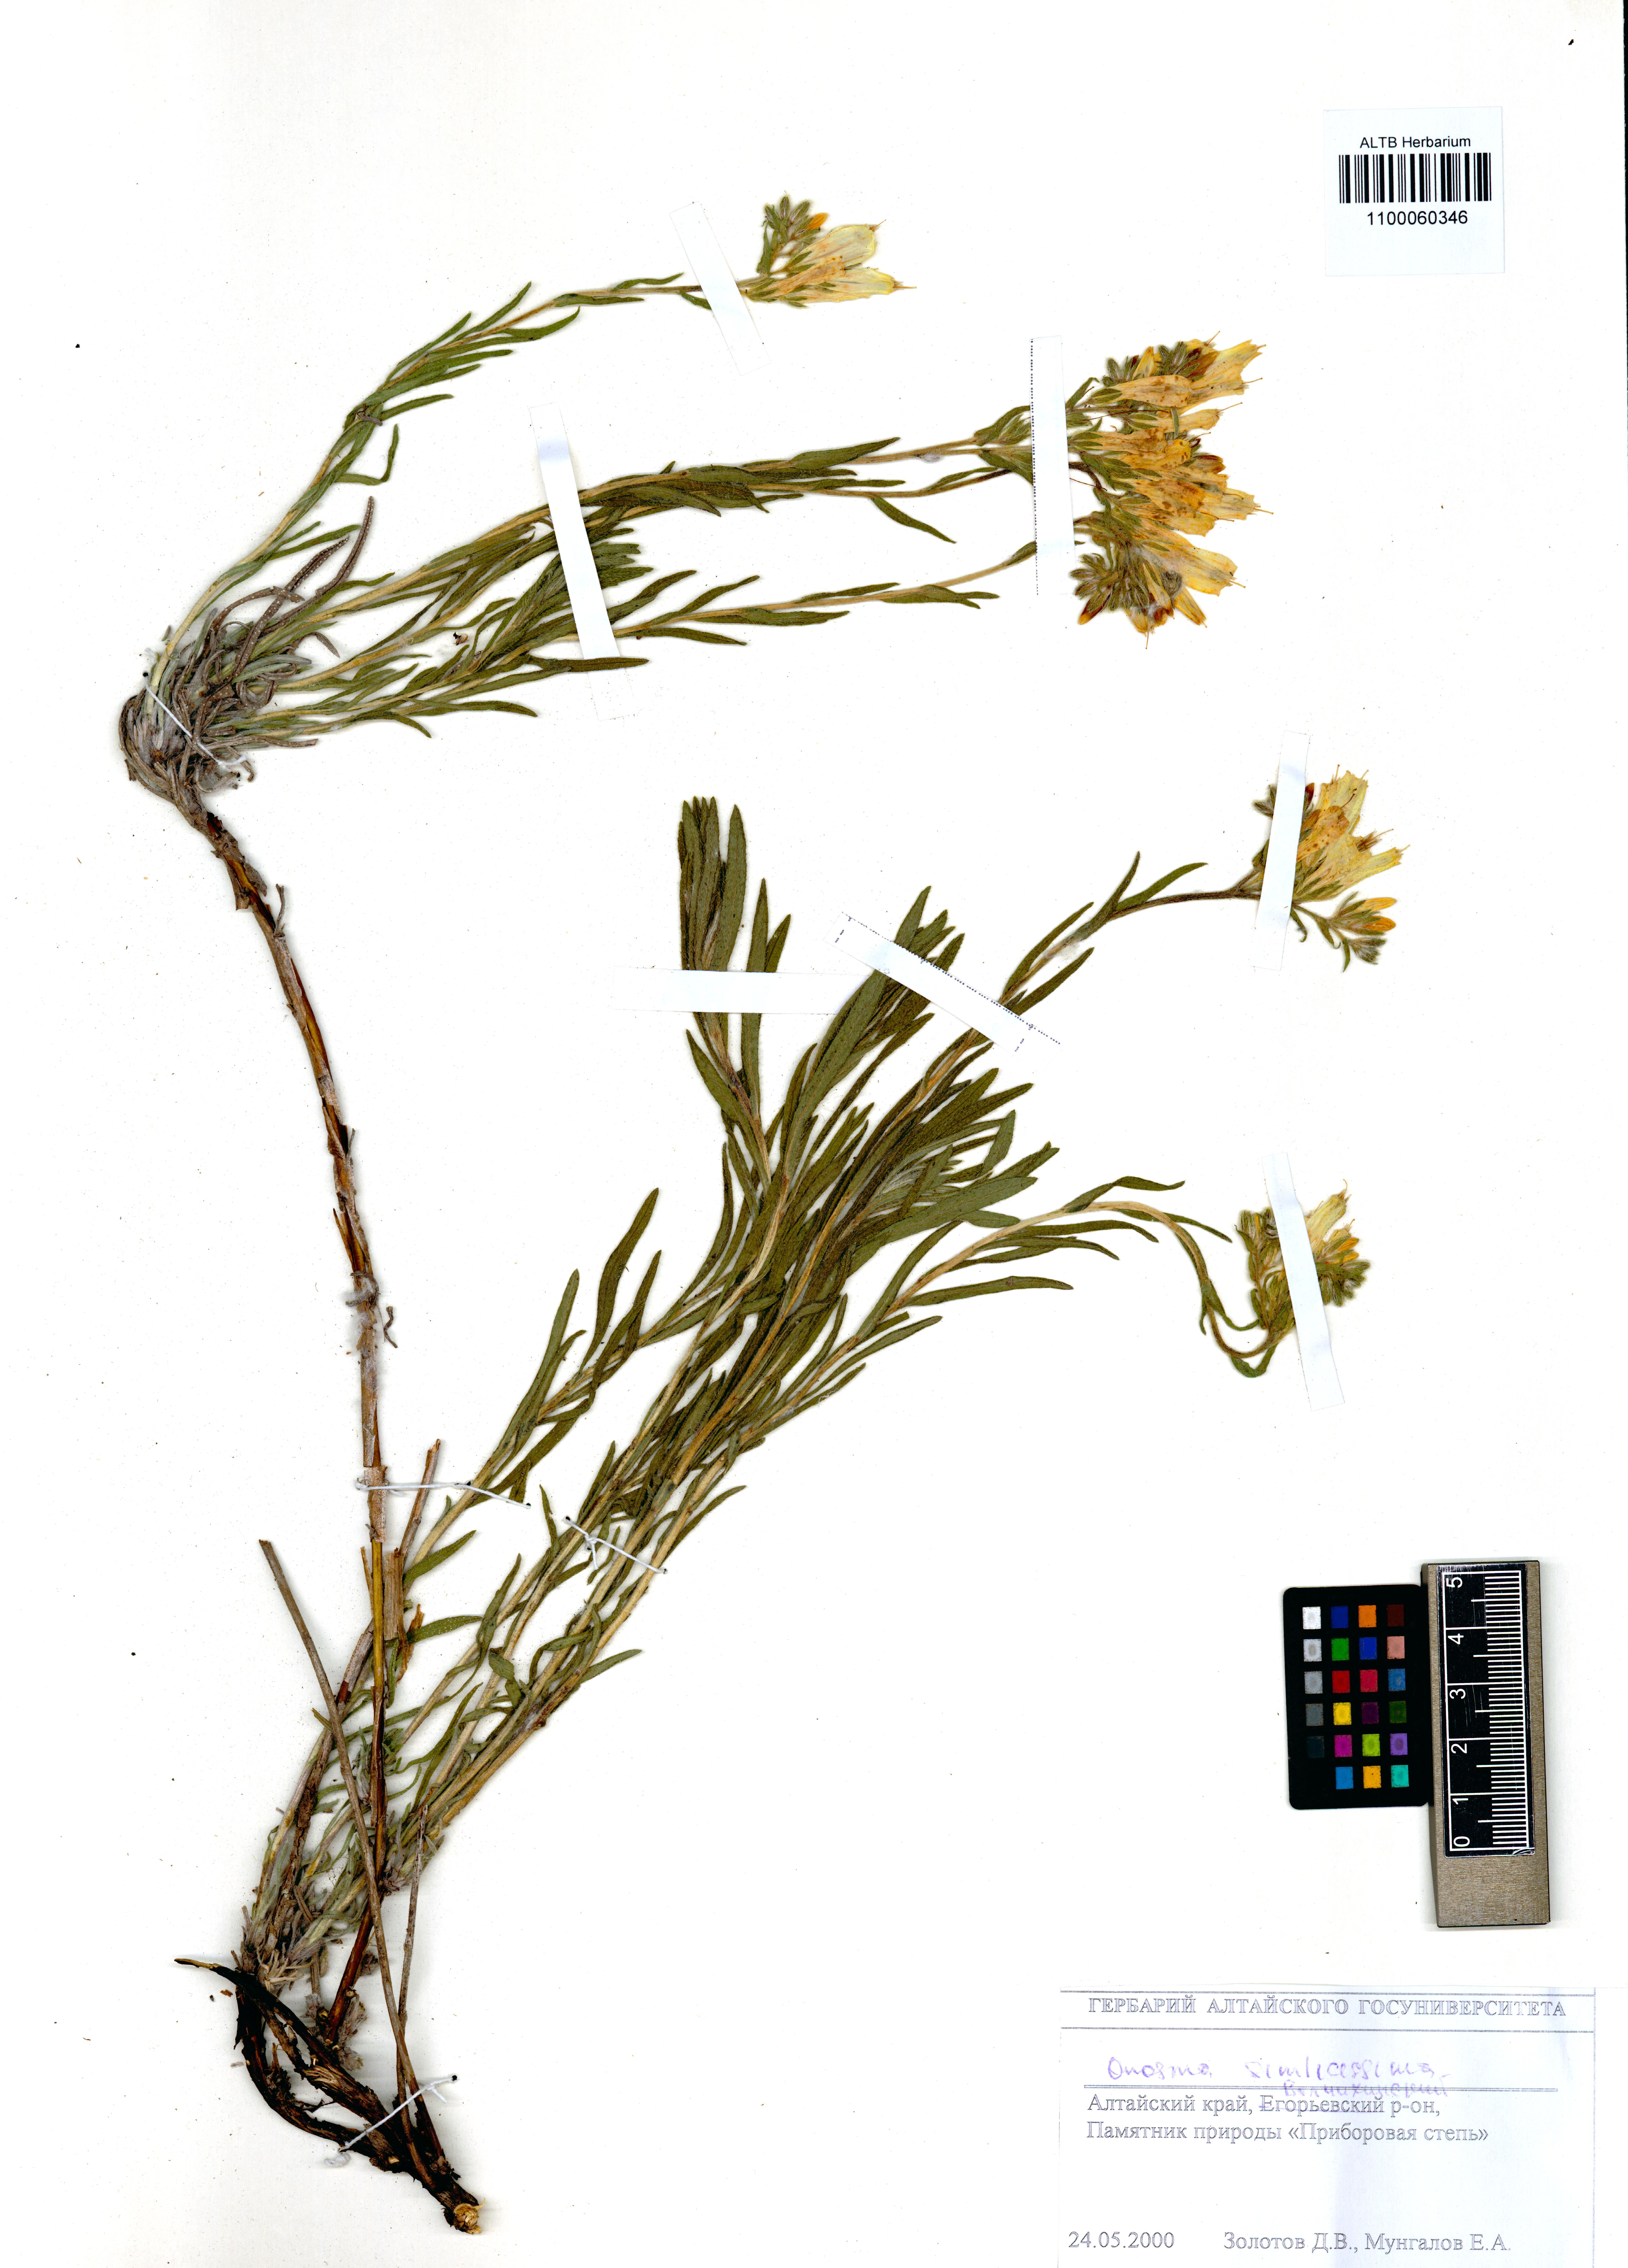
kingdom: Plantae
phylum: Tracheophyta
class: Magnoliopsida
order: Boraginales
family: Boraginaceae
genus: Onosma
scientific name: Onosma simplicissima
